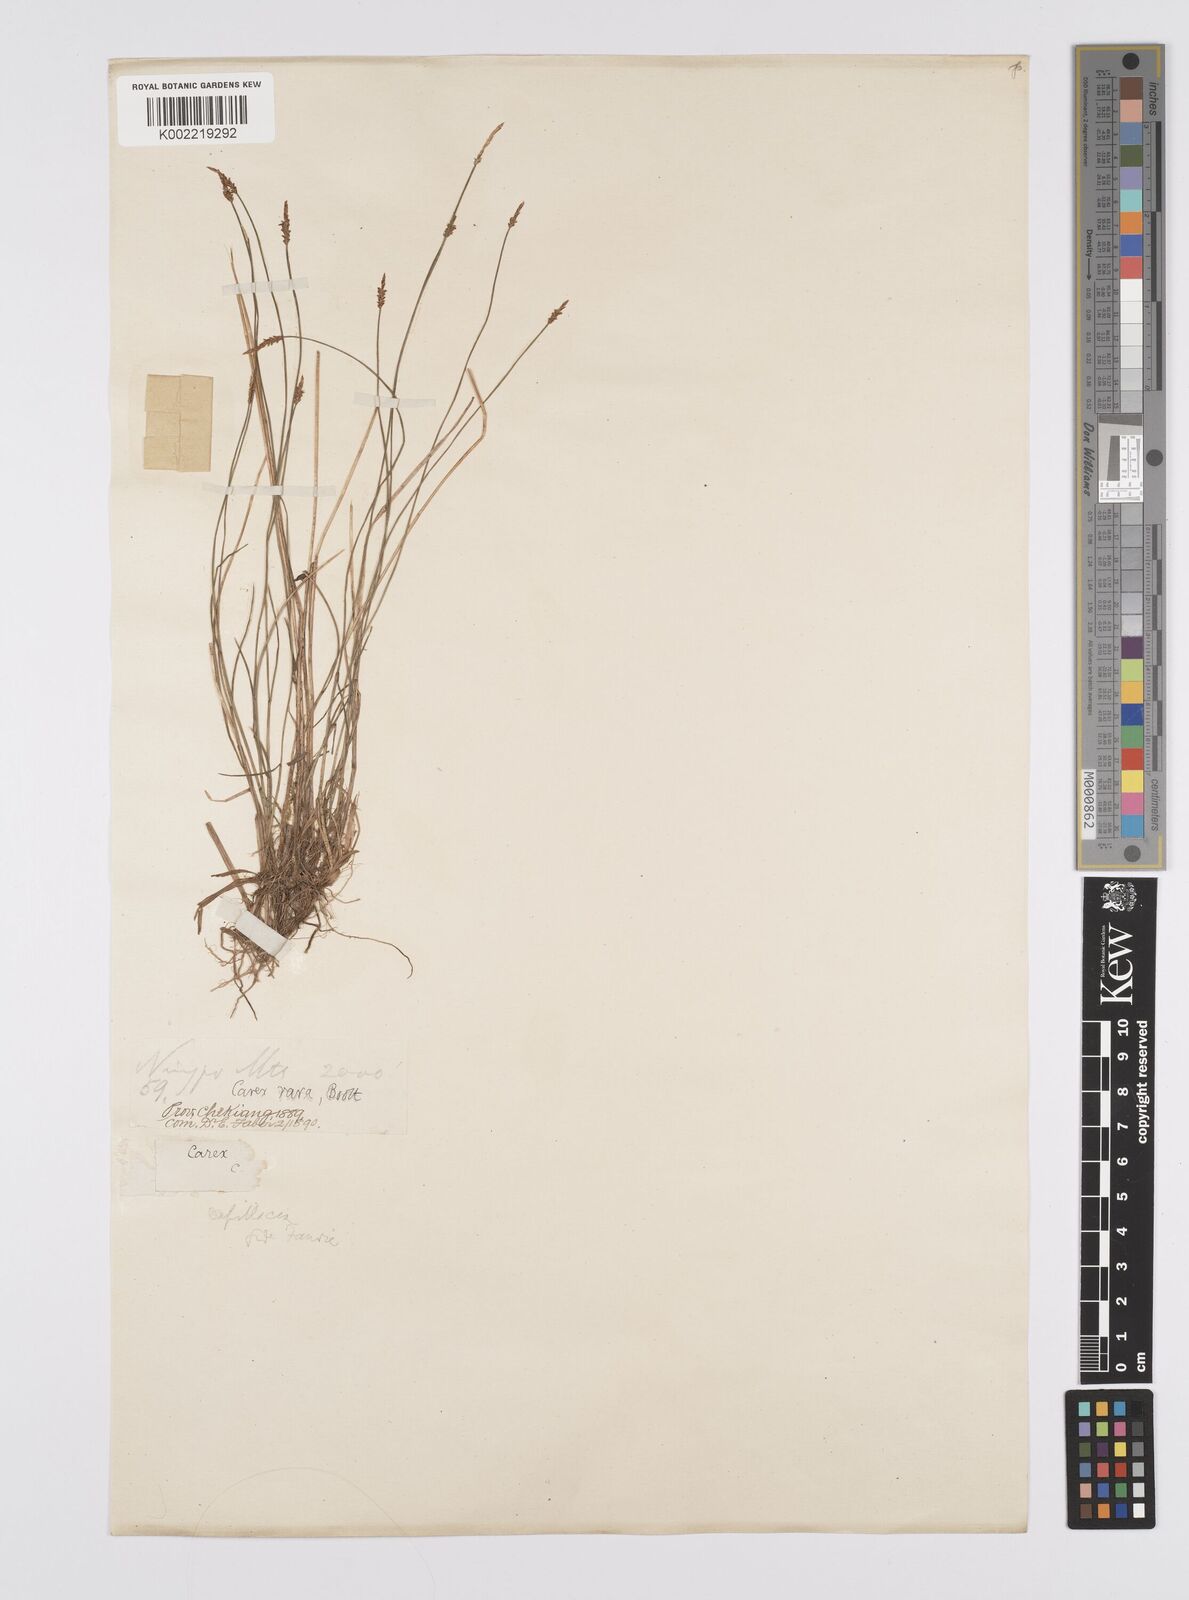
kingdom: Plantae
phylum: Tracheophyta
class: Liliopsida
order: Poales
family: Cyperaceae
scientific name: Cyperaceae
